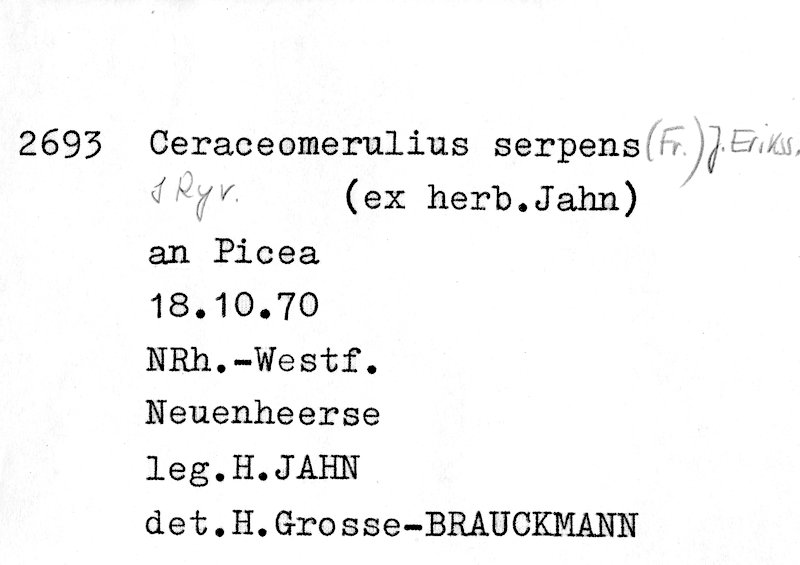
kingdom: Fungi
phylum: Basidiomycota
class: Agaricomycetes
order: Polyporales
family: Irpicaceae
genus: Crystallicutis
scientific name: Crystallicutis serpens
